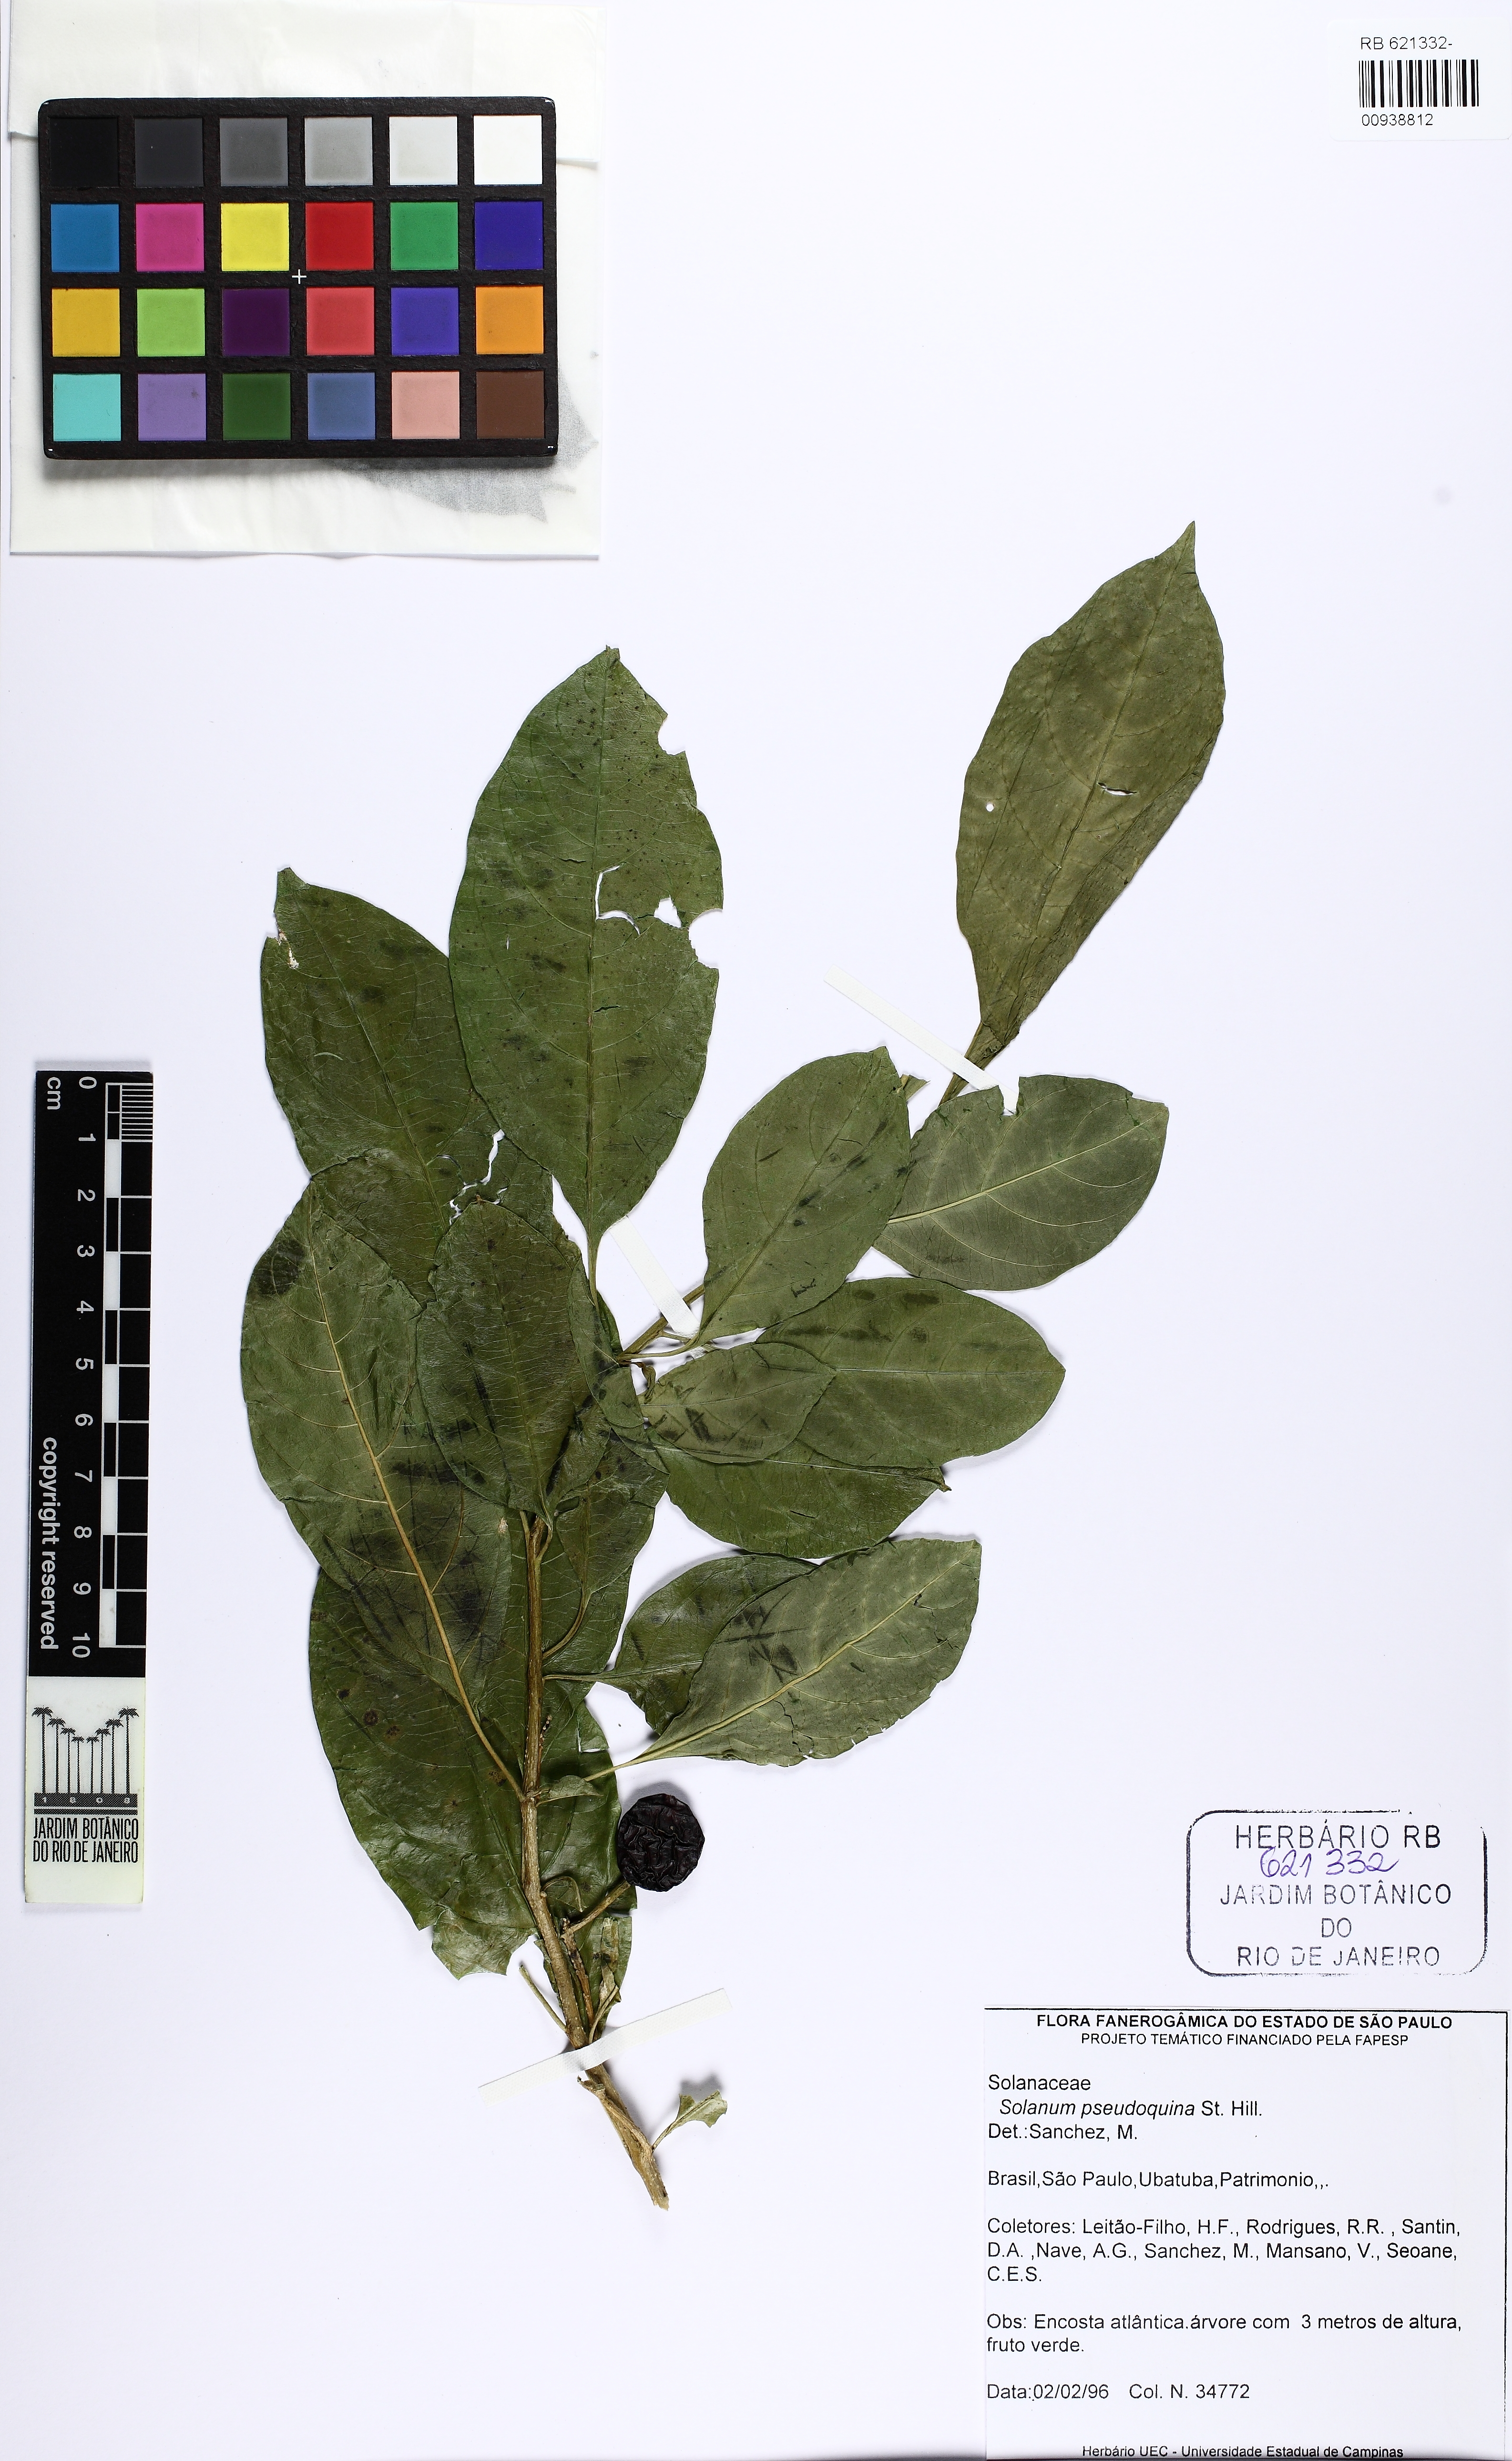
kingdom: Plantae
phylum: Tracheophyta
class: Magnoliopsida
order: Solanales
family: Solanaceae
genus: Solanum
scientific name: Solanum pseudoquina
